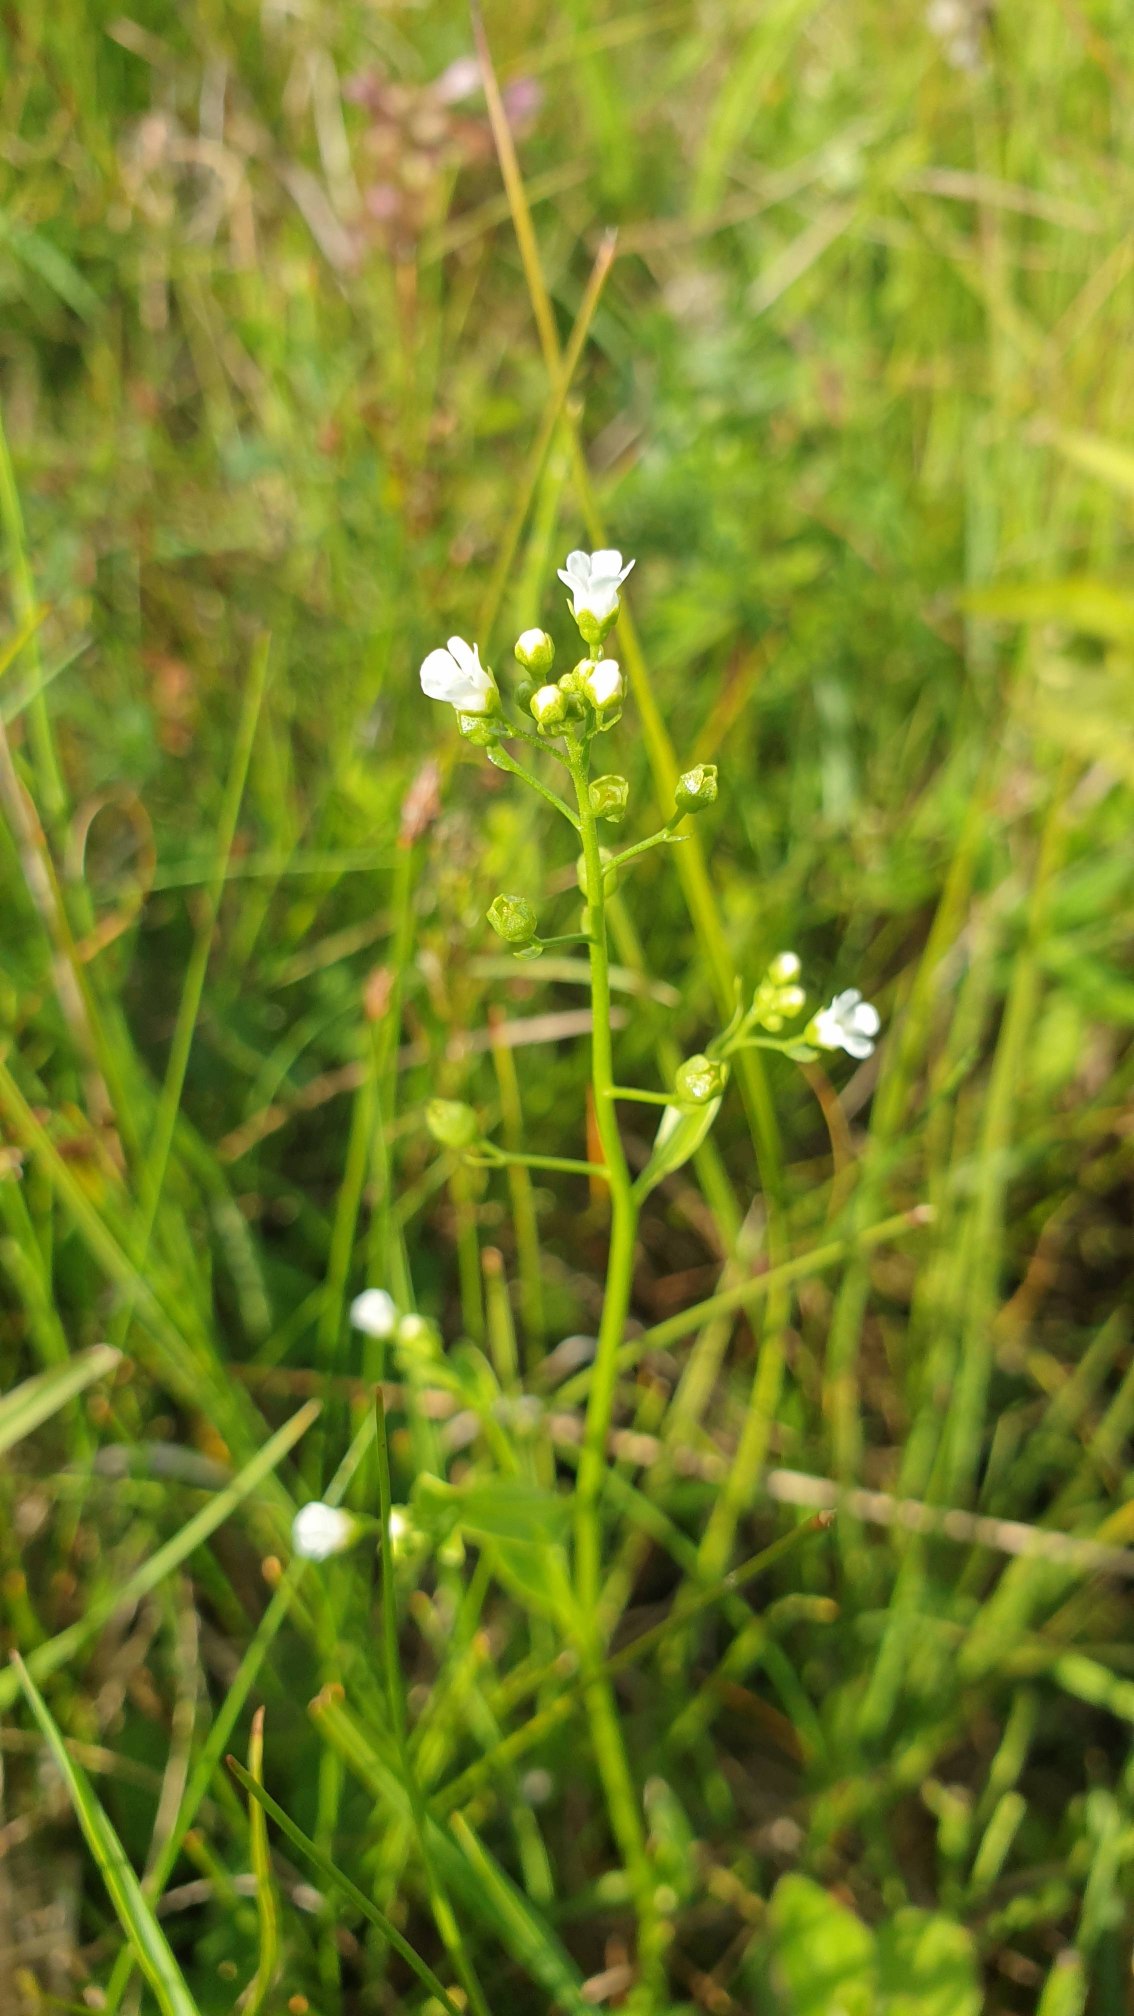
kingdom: Plantae
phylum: Tracheophyta
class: Magnoliopsida
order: Ericales
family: Primulaceae
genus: Samolus
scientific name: Samolus valerandi
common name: Samel
